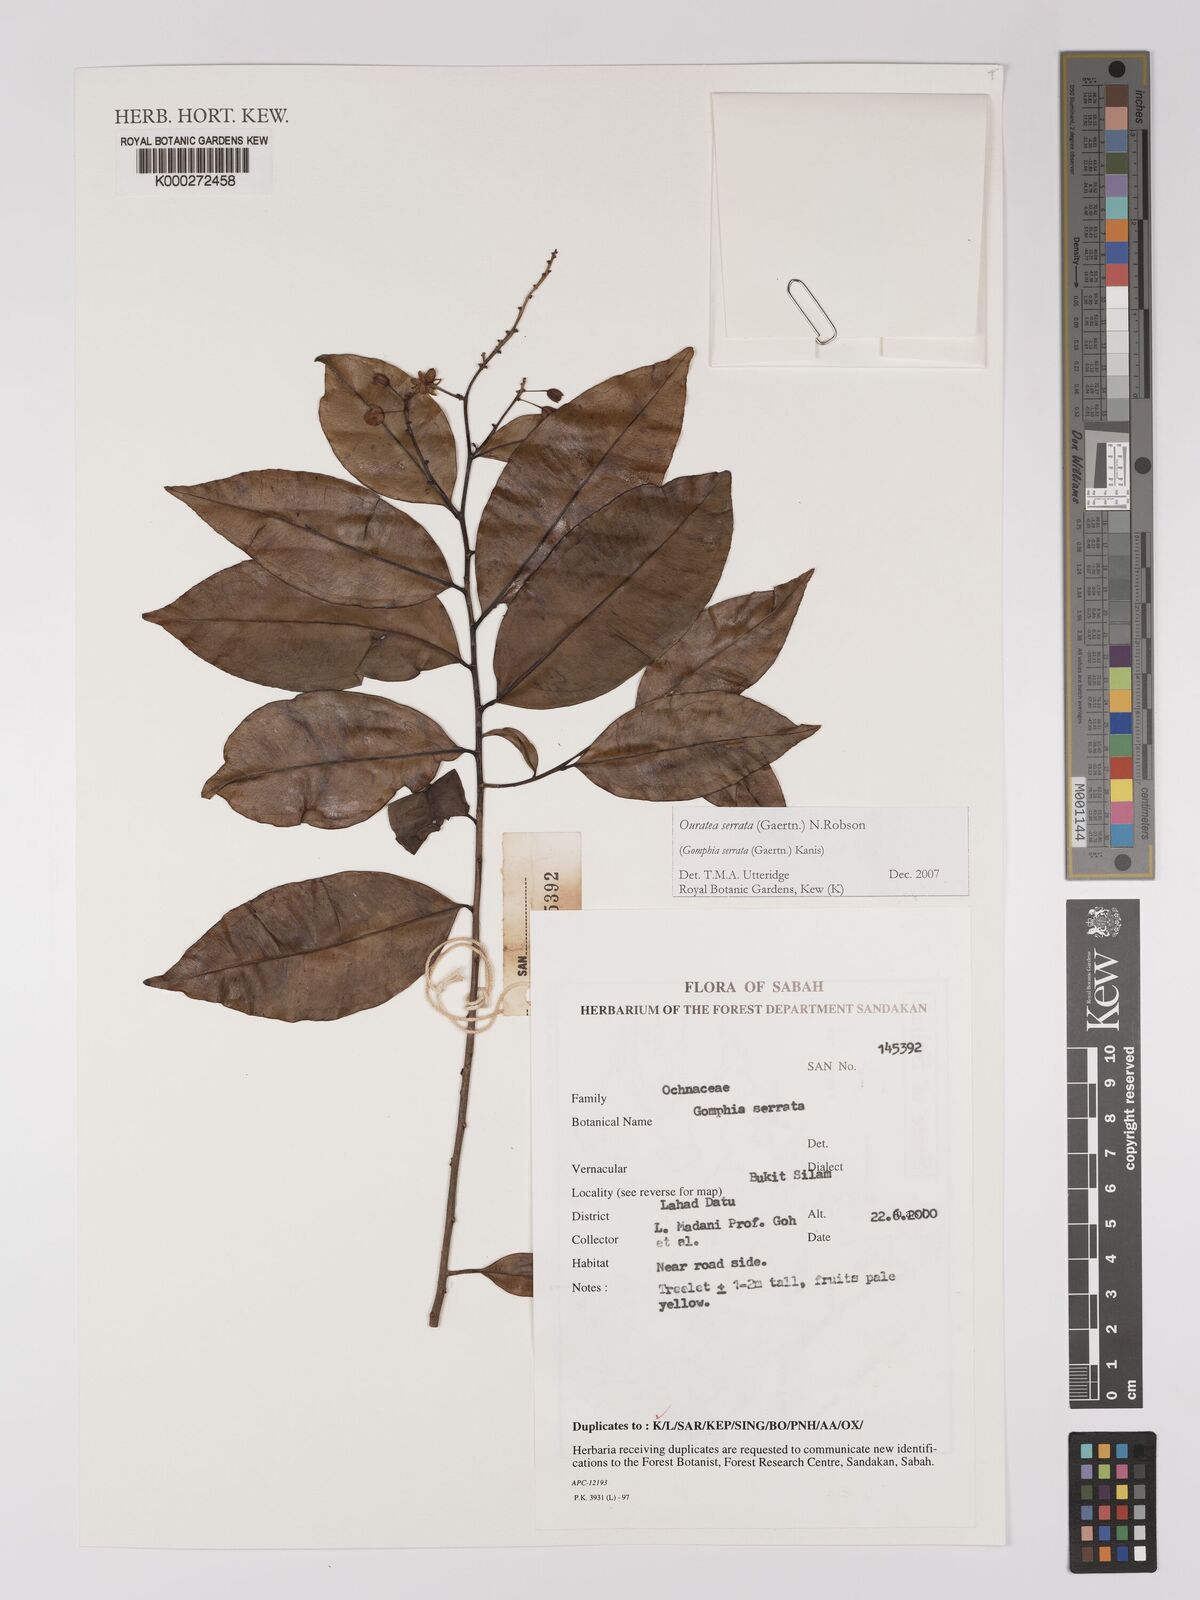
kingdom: Plantae
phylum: Tracheophyta
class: Magnoliopsida
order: Malpighiales
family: Ochnaceae
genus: Gomphia
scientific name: Gomphia serrata
